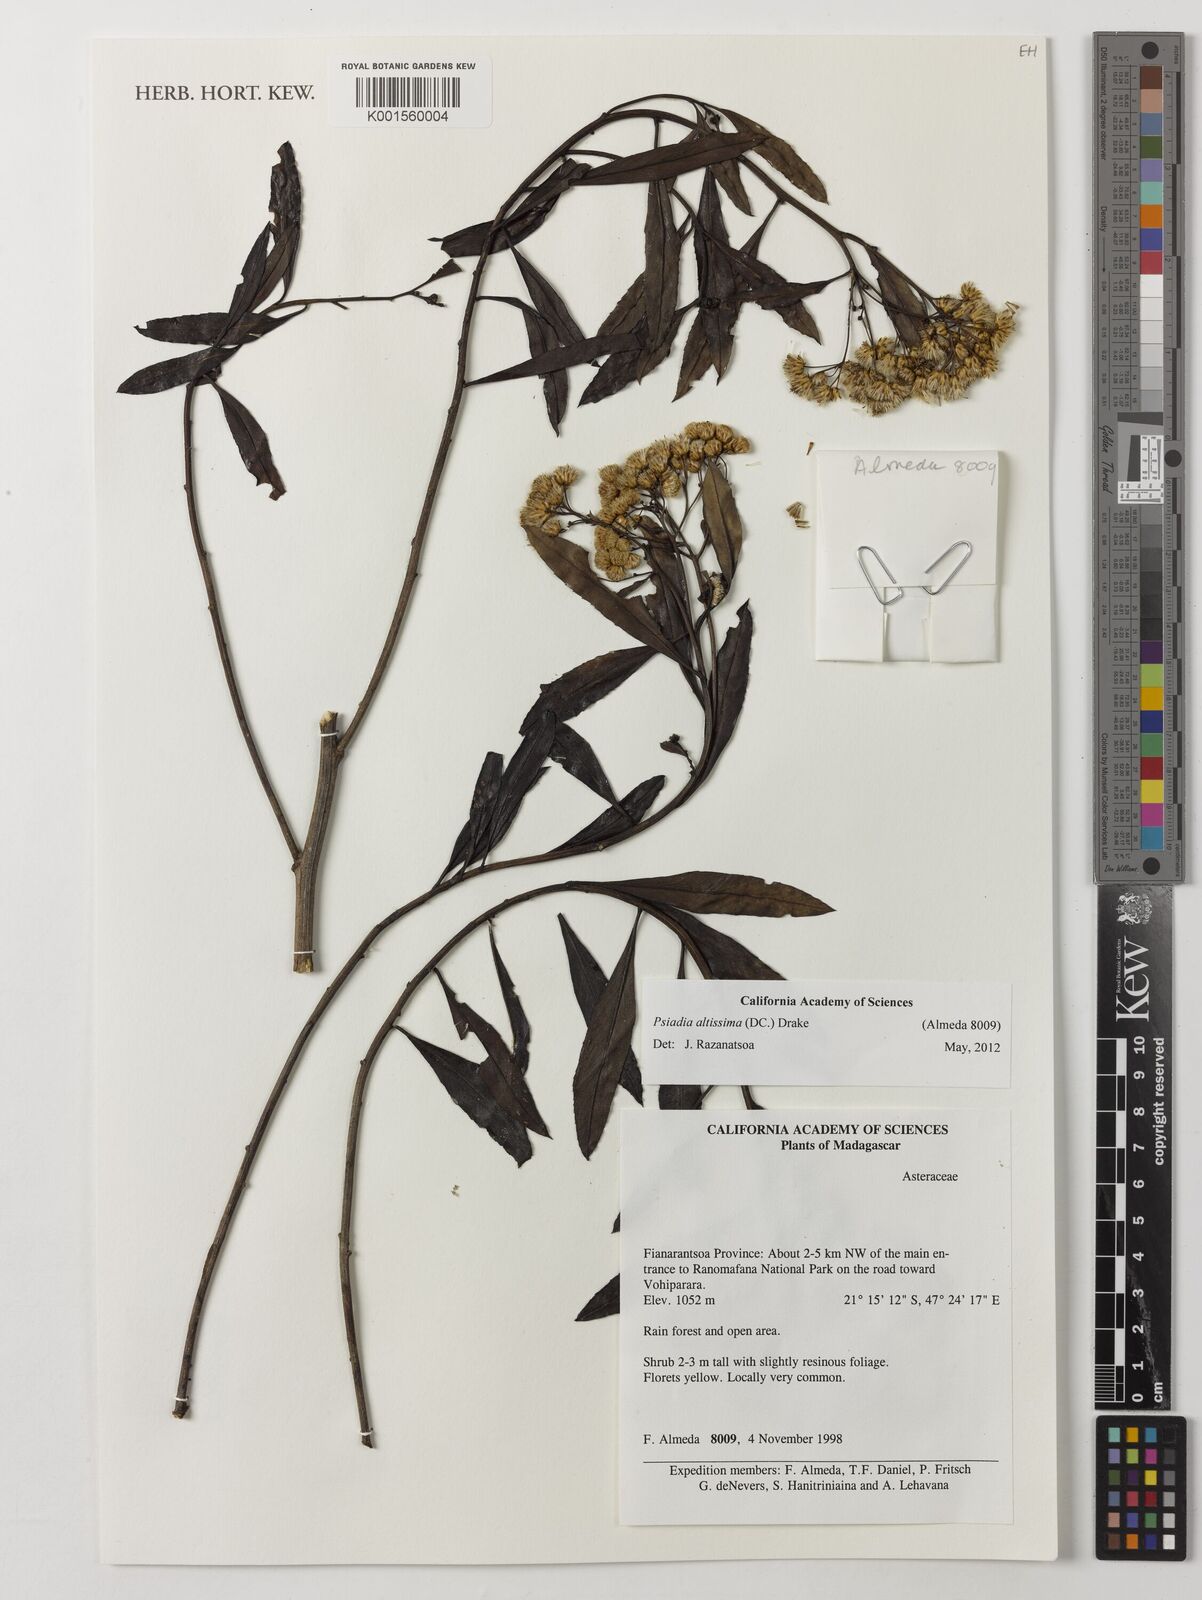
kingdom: Plantae
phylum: Tracheophyta
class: Magnoliopsida
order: Asterales
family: Asteraceae
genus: Psiadia
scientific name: Psiadia altissima
